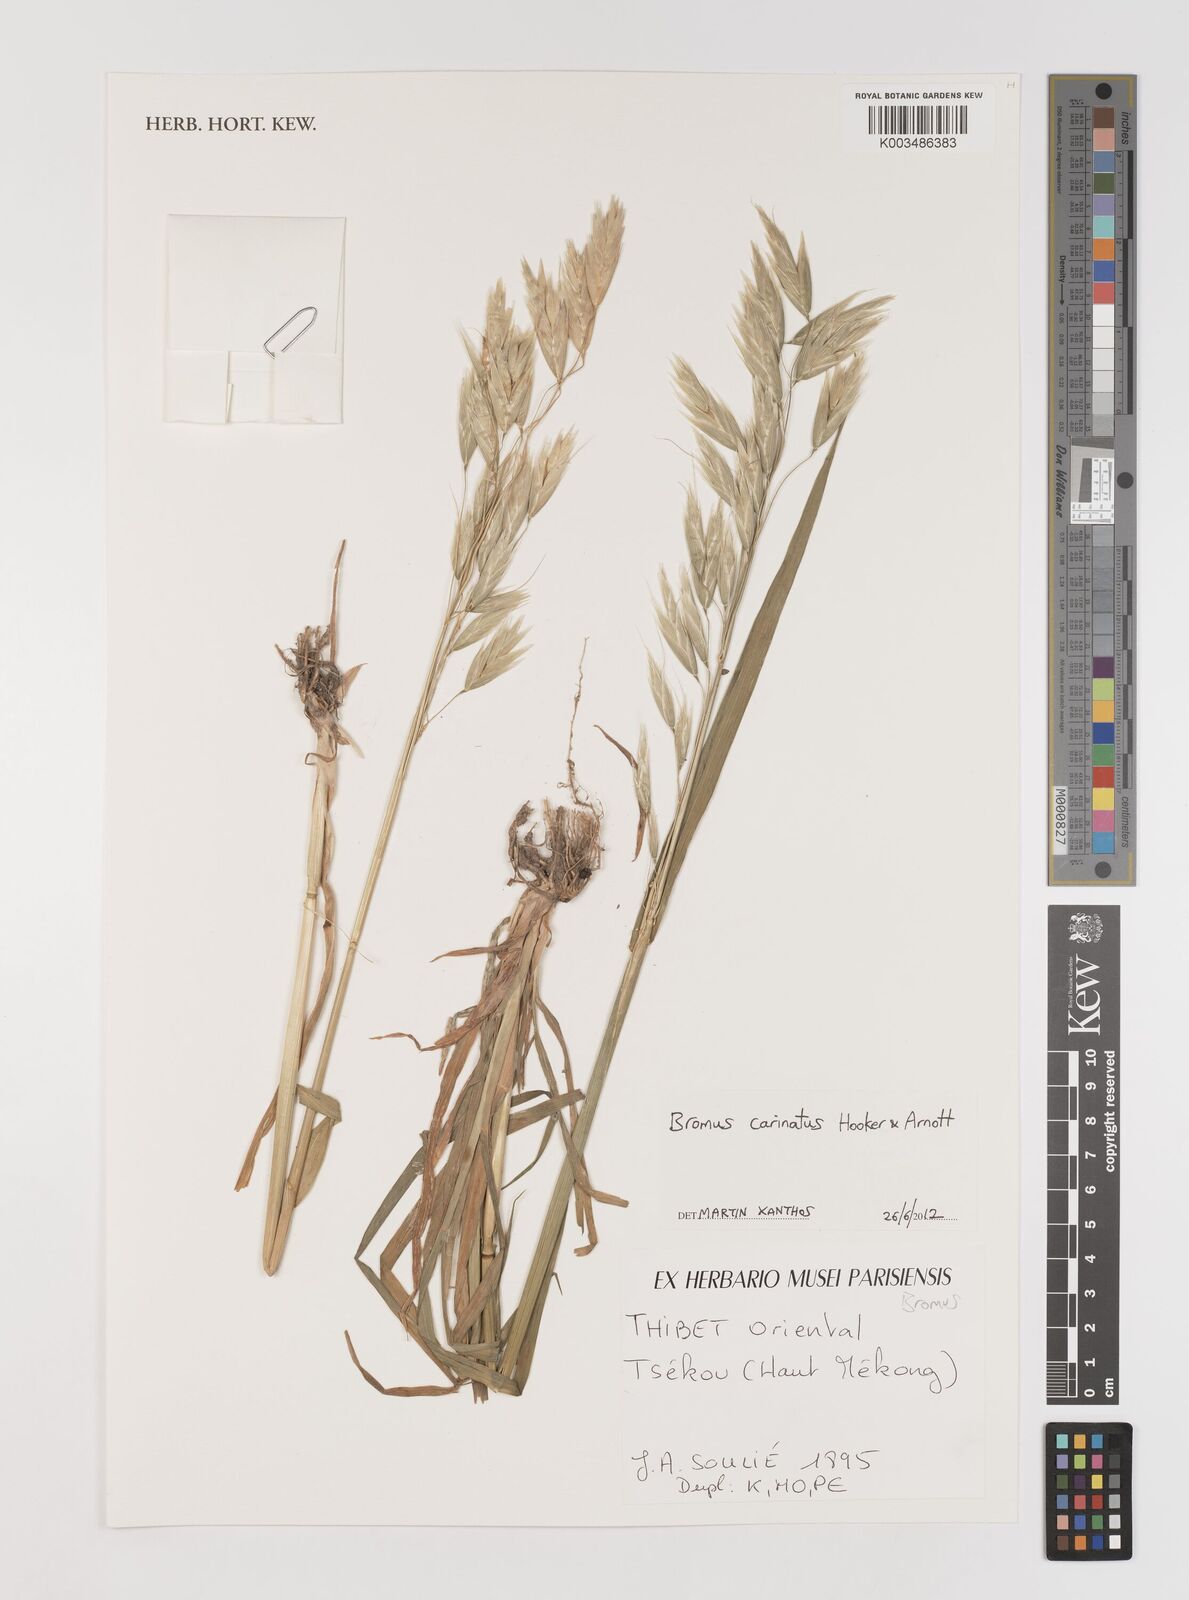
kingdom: Plantae
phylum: Tracheophyta
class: Liliopsida
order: Poales
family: Poaceae
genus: Bromus
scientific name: Bromus carinatus
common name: Mountain brome
